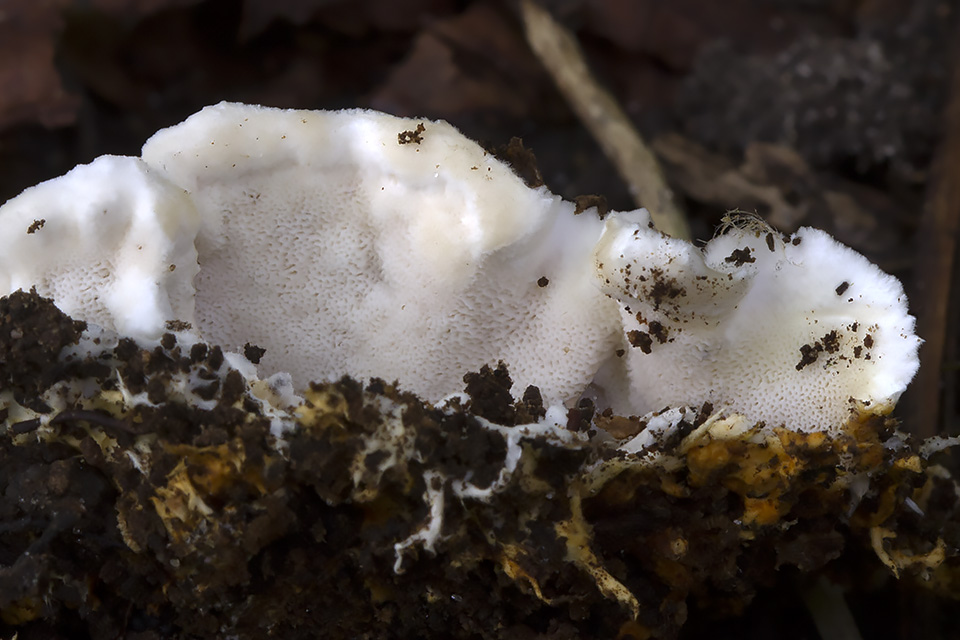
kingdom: Fungi
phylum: Basidiomycota
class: Agaricomycetes
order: Polyporales
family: Steccherinaceae
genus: Loweomyces
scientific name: Loweomyces wynneae
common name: krybende blødporesvamp
